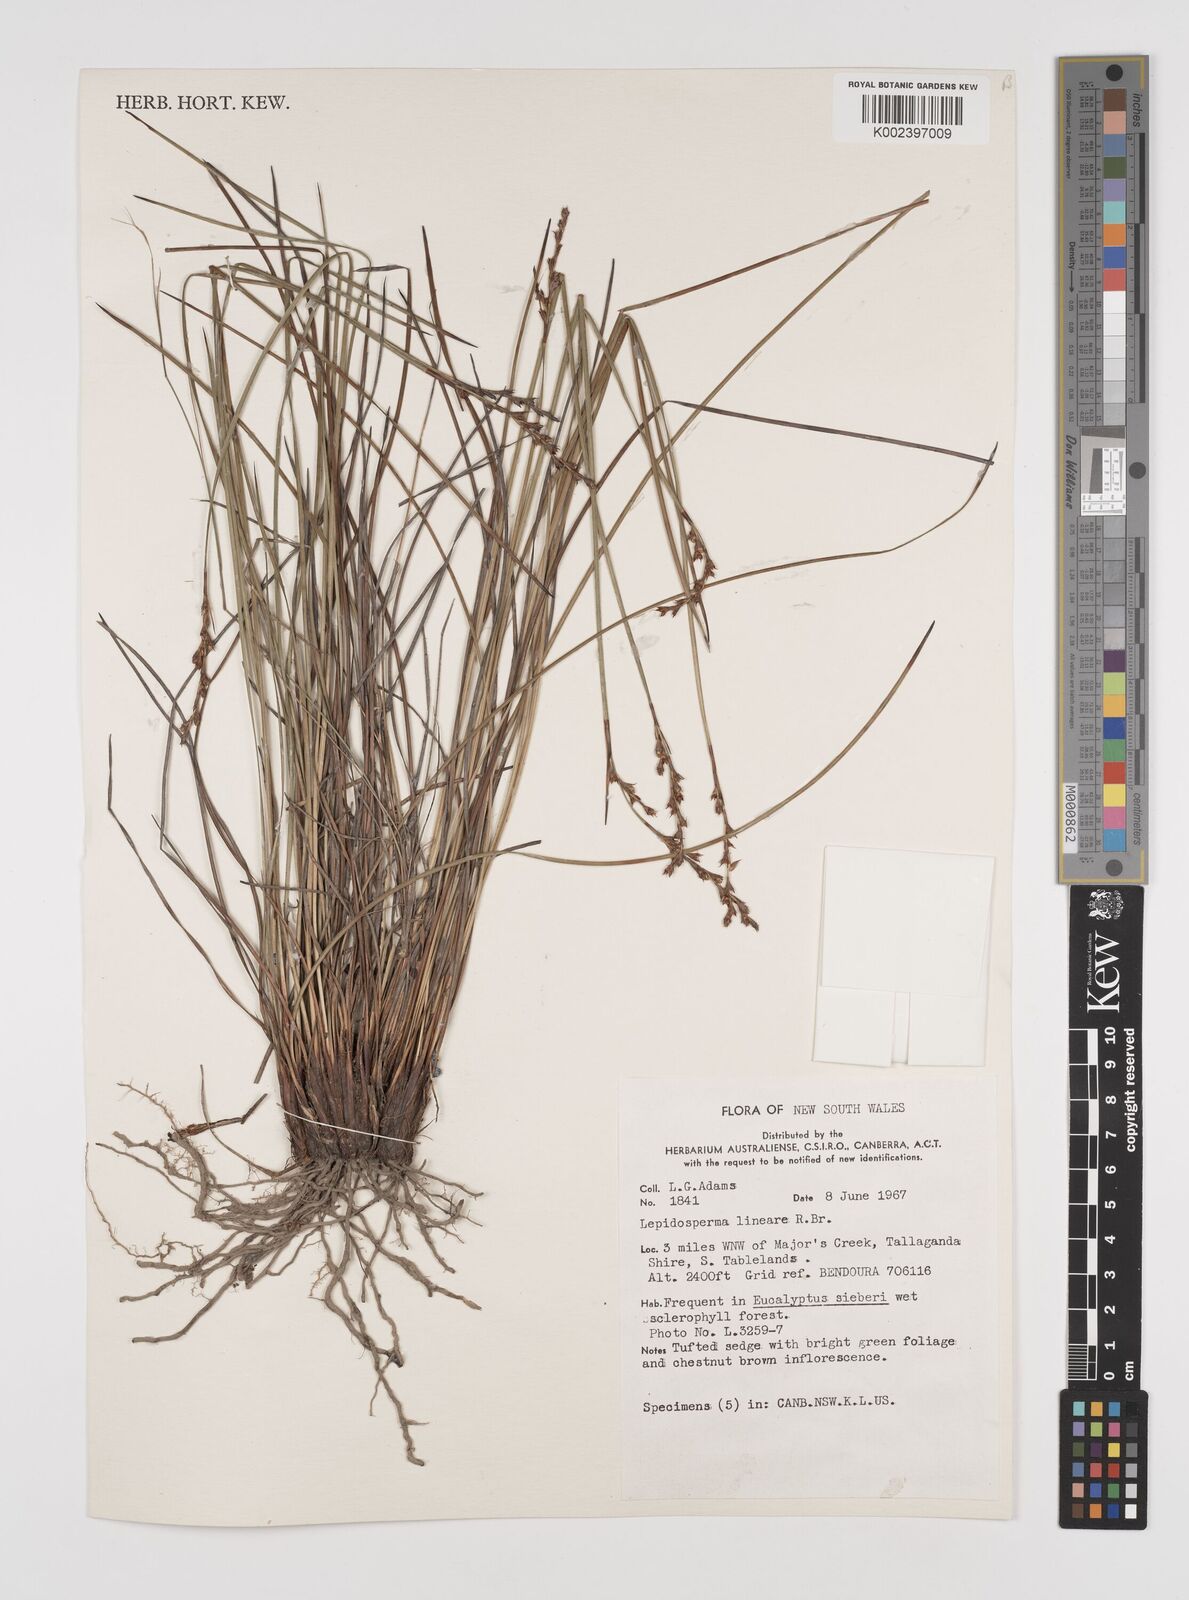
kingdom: Plantae
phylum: Tracheophyta
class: Liliopsida
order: Poales
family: Cyperaceae
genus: Lepidosperma
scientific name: Lepidosperma lineare
